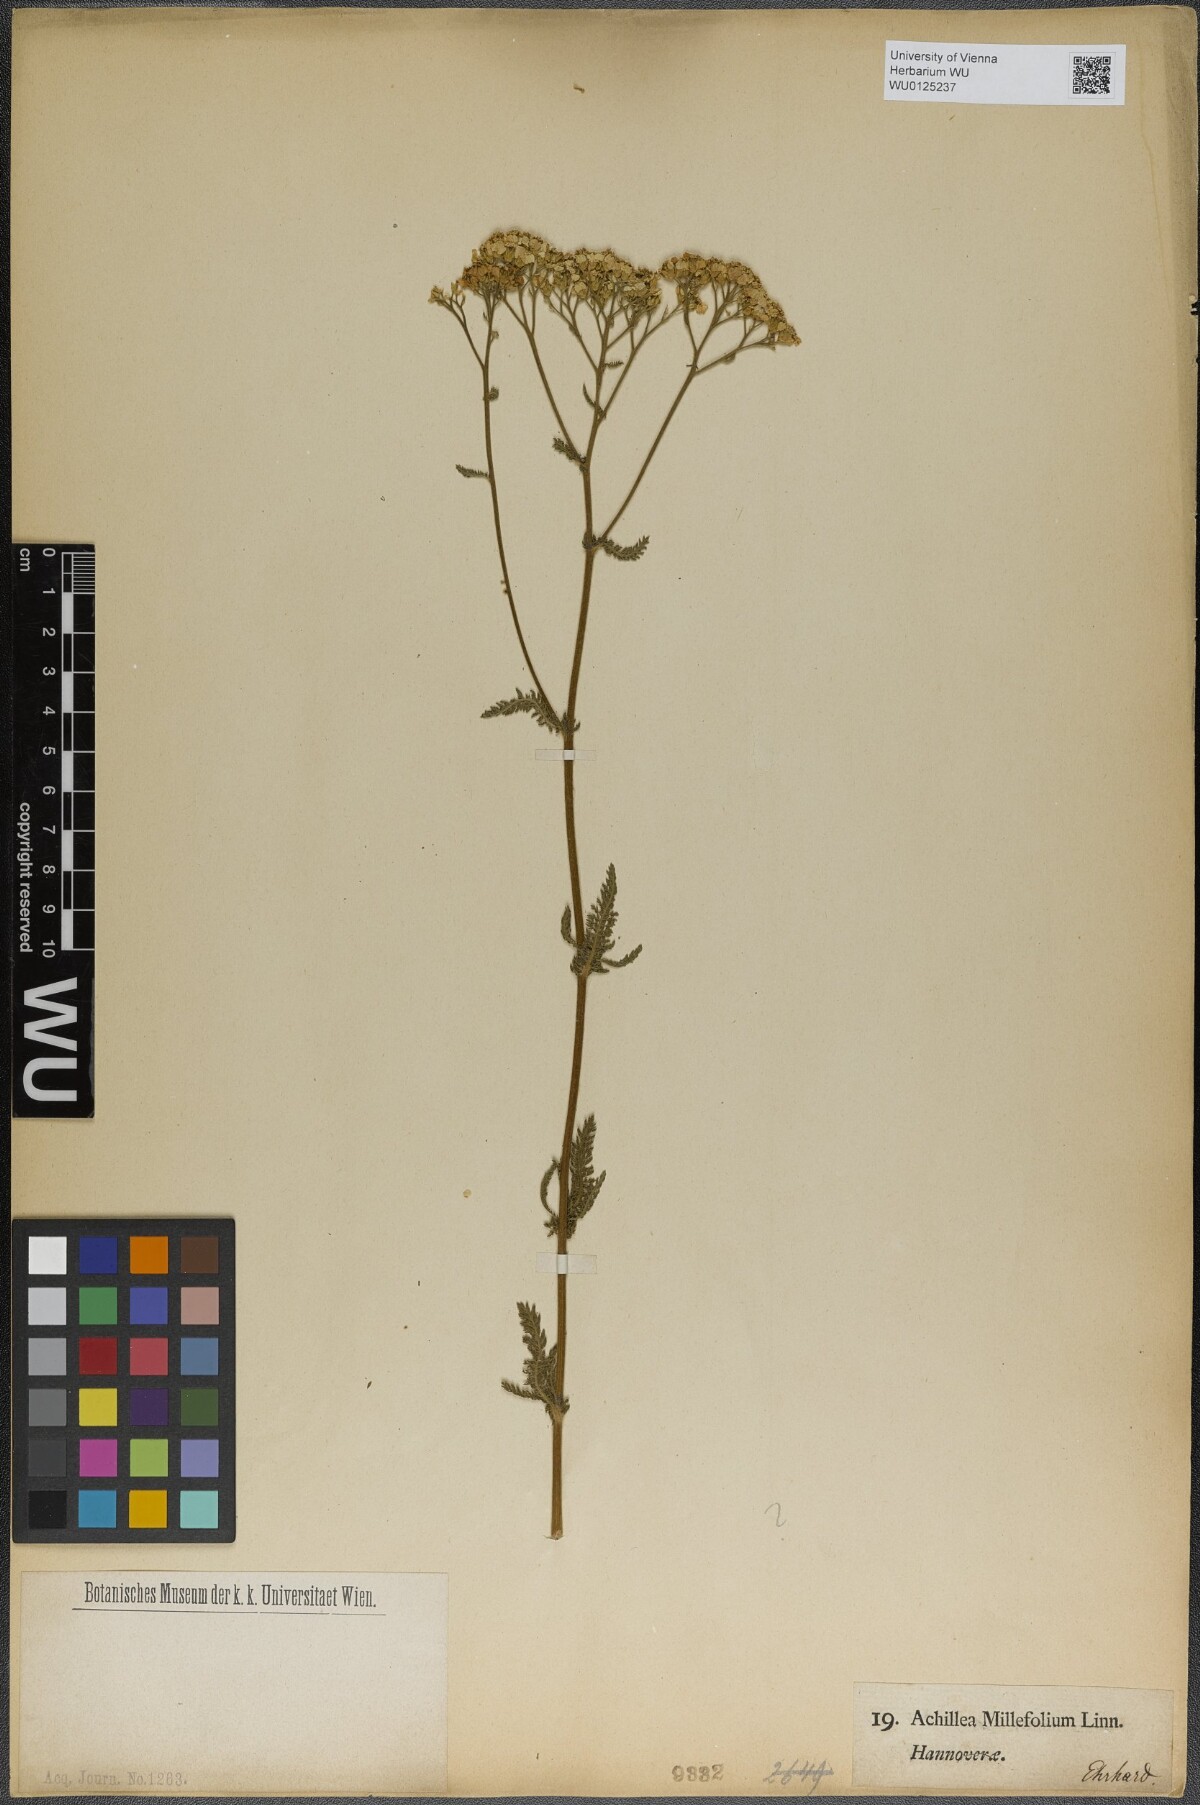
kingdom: Plantae
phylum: Tracheophyta
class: Magnoliopsida
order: Asterales
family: Asteraceae
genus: Achillea
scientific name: Achillea millefolium
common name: Yarrow
